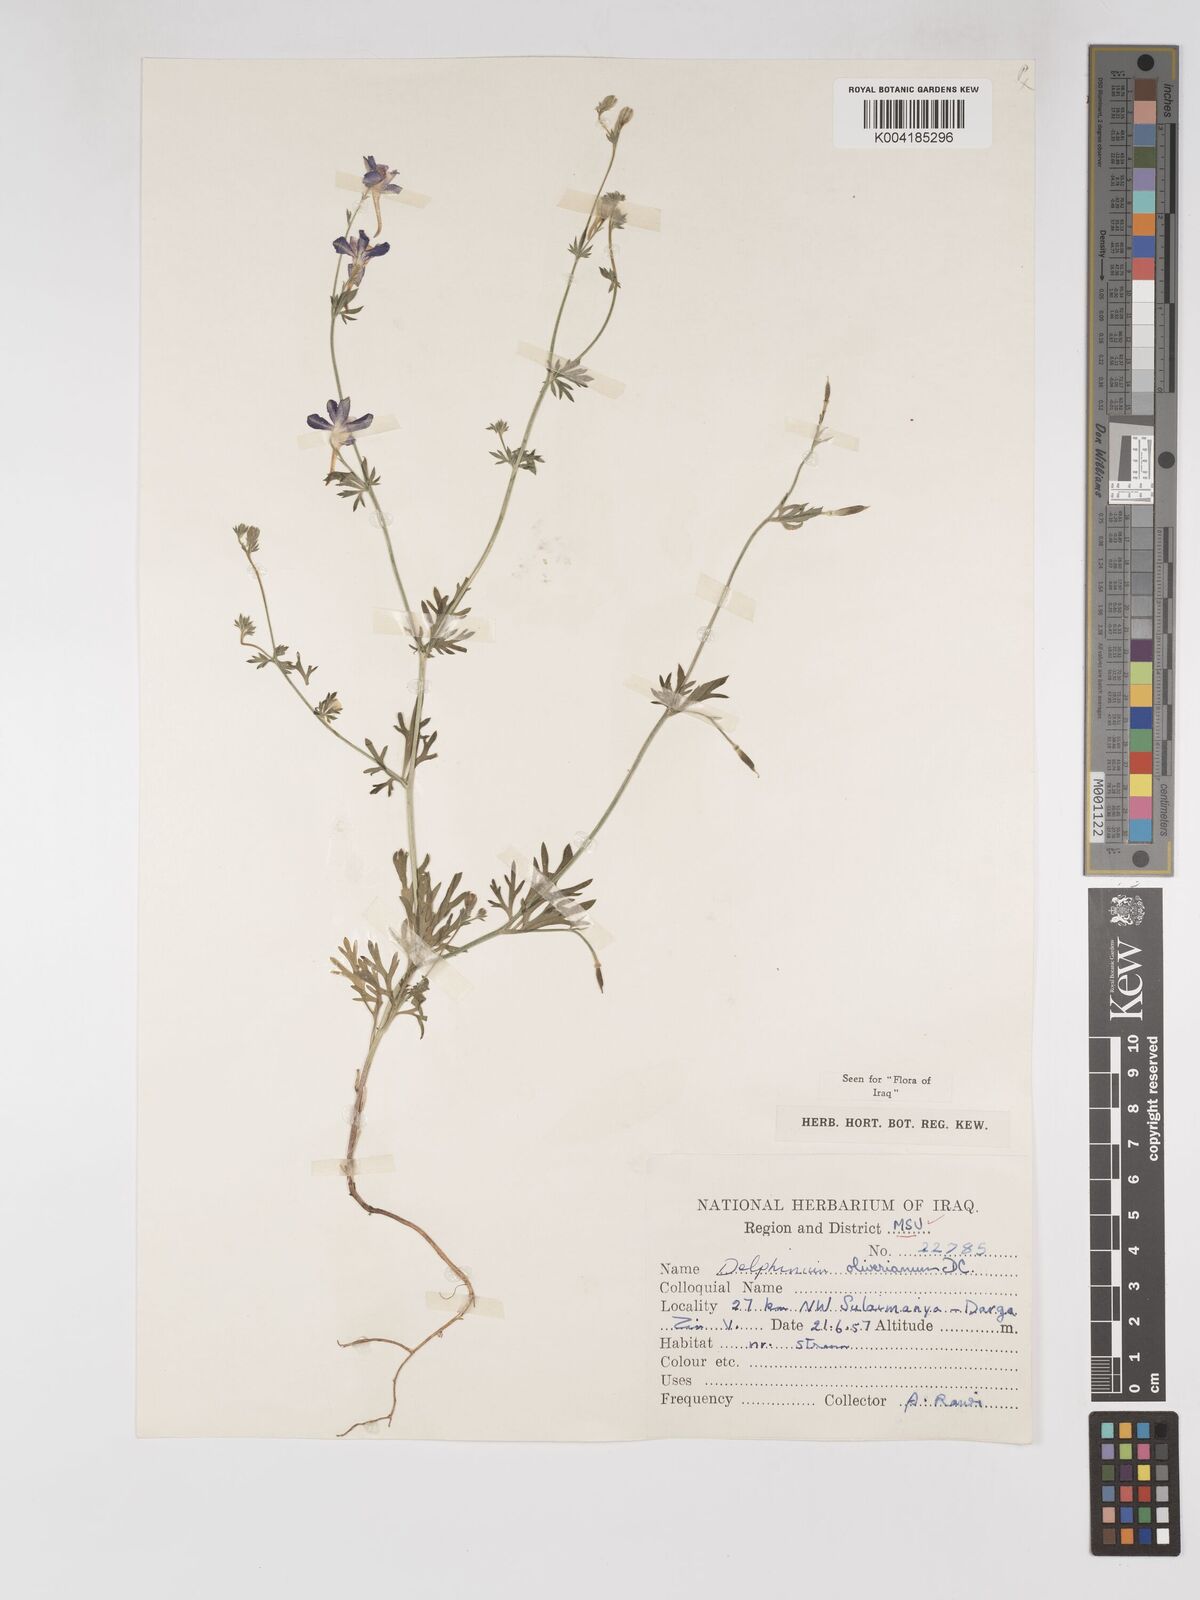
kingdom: Plantae
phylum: Tracheophyta
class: Magnoliopsida
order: Ranunculales
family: Ranunculaceae
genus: Delphinium
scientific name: Delphinium oliverianum
